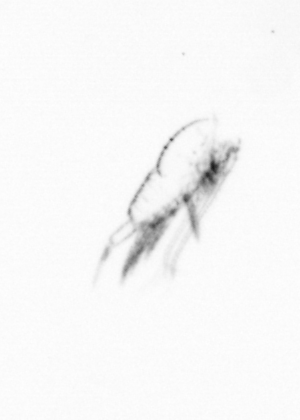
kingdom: Animalia
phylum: Arthropoda
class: Copepoda
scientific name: Copepoda
